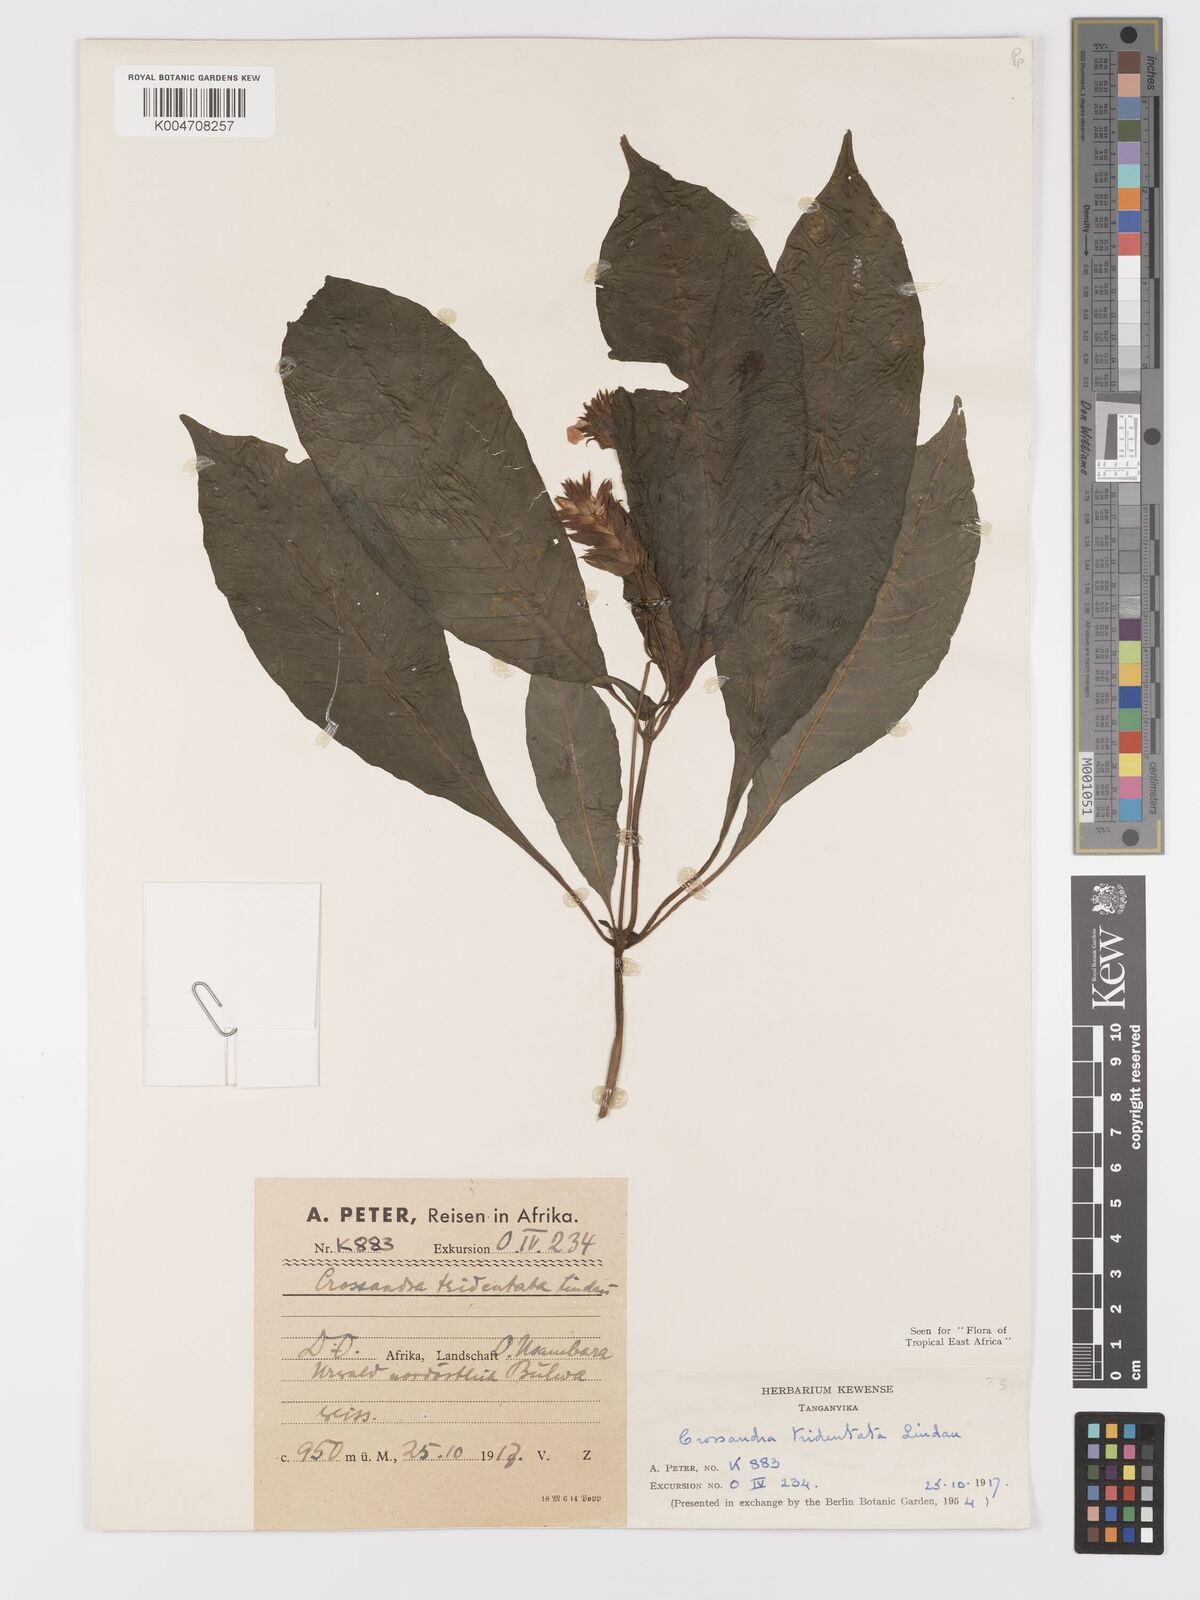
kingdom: Plantae
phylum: Tracheophyta
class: Magnoliopsida
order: Lamiales
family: Acanthaceae
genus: Crossandra
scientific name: Crossandra tridentata
